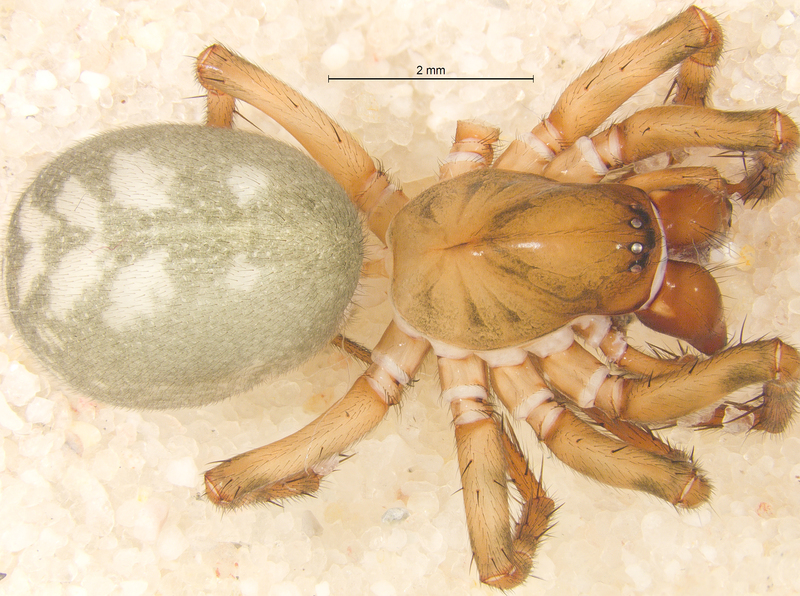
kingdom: Animalia
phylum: Arthropoda
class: Arachnida
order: Araneae
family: Cybaeidae
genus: Cybaeus
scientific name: Cybaeus tetricus
